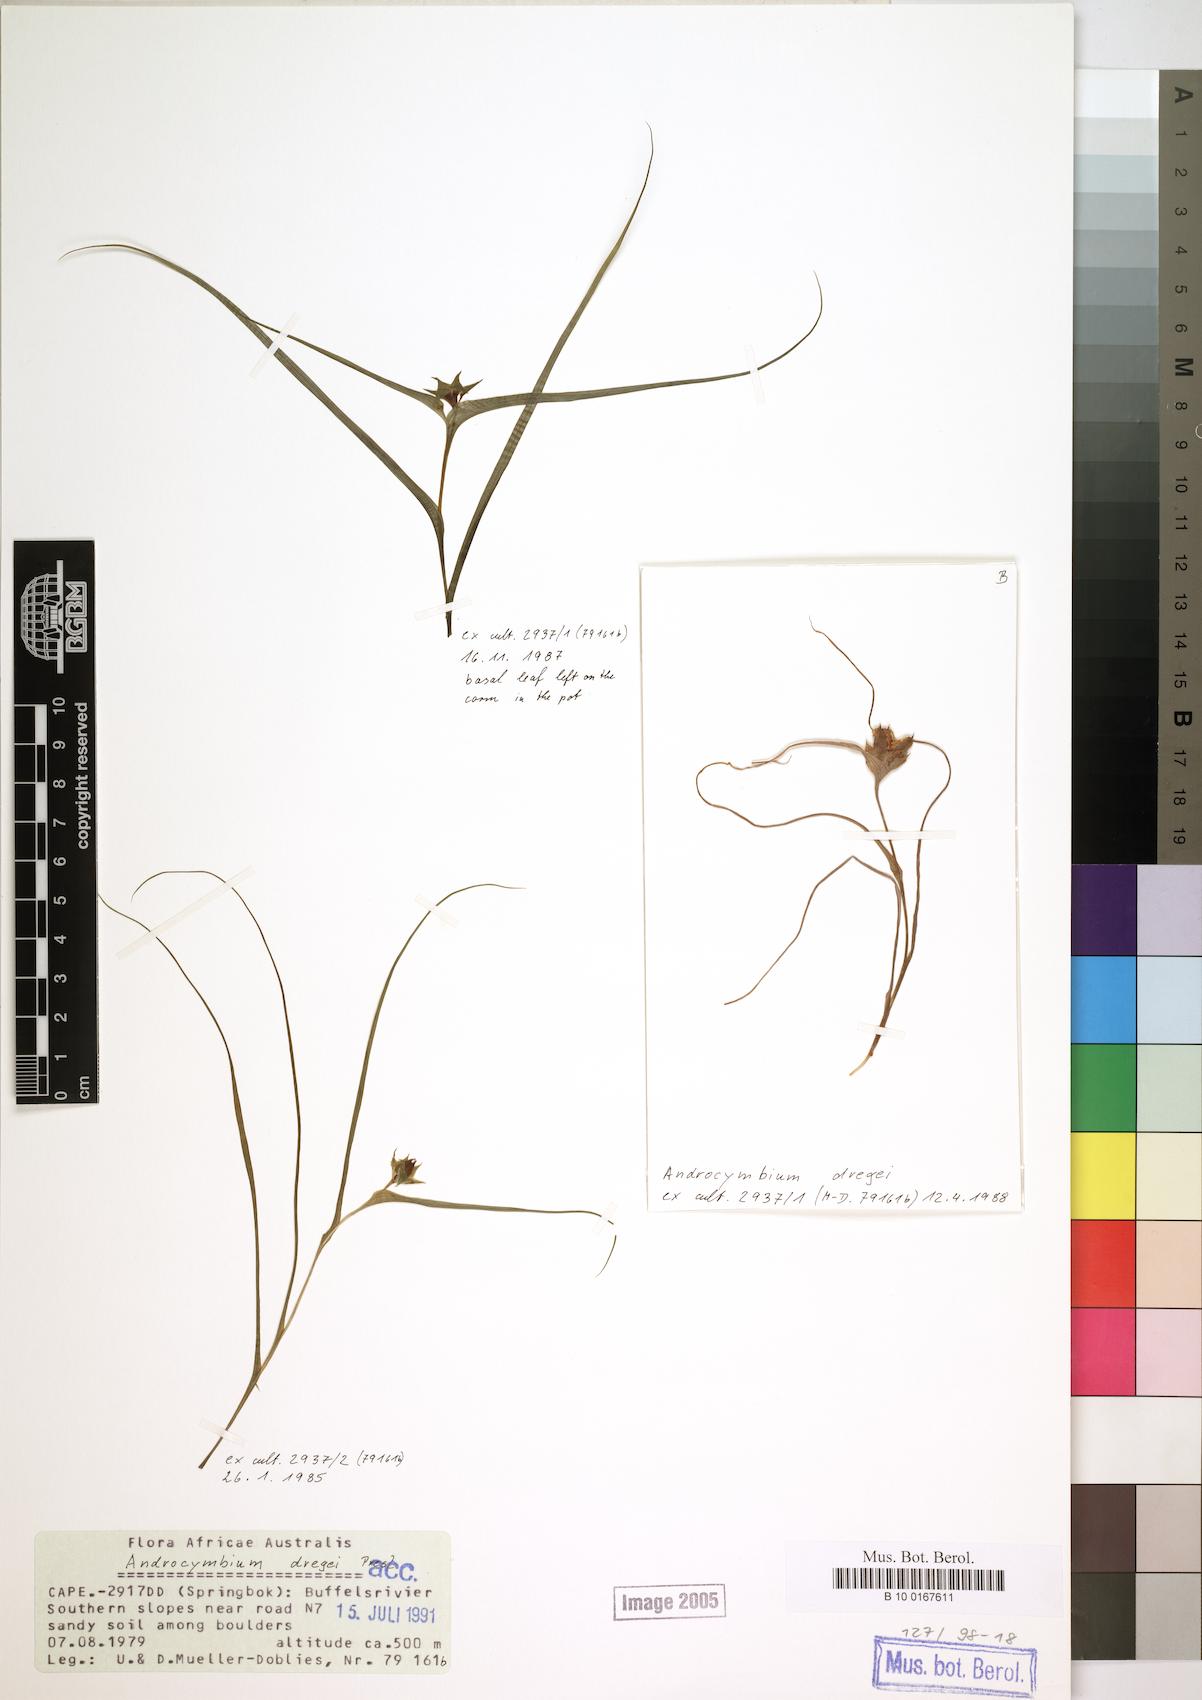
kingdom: Plantae
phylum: Tracheophyta
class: Liliopsida
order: Liliales
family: Colchicaceae
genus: Colchicum
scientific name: Colchicum dregei
